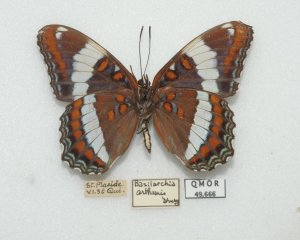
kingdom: Animalia
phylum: Arthropoda
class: Insecta
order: Lepidoptera
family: Nymphalidae
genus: Limenitis
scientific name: Limenitis arthemis
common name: Red-spotted Admiral
